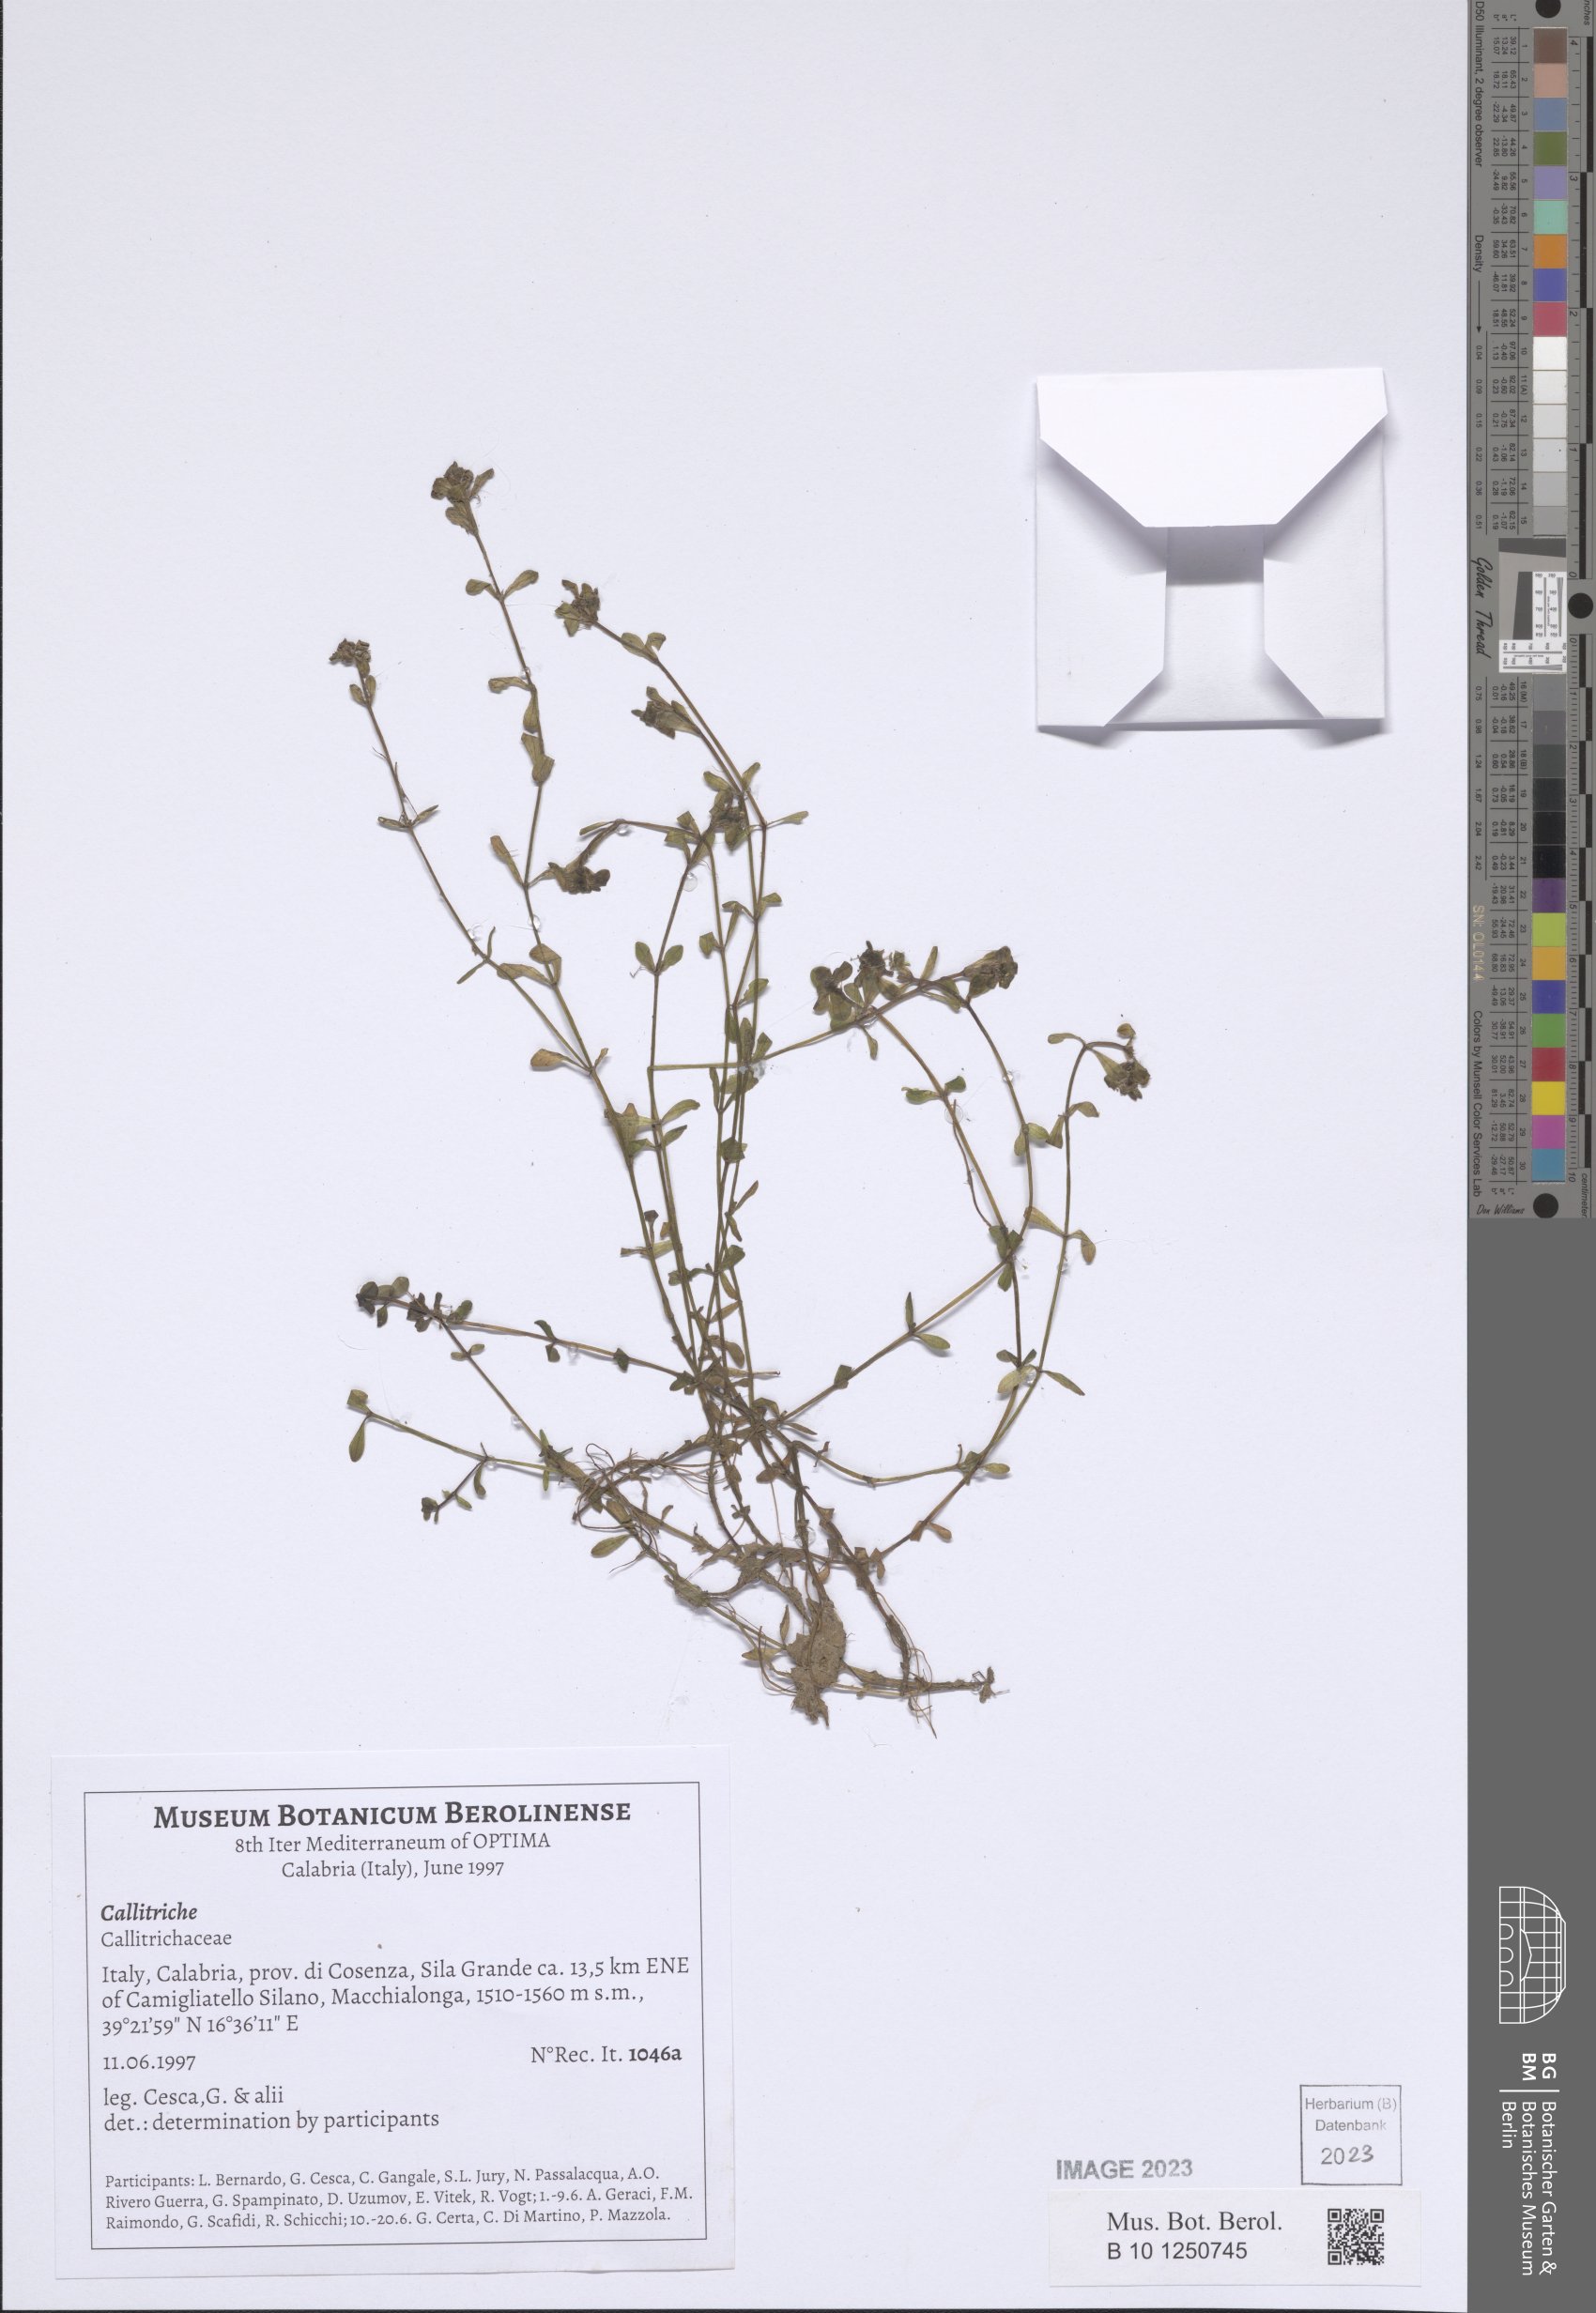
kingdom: Plantae
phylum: Tracheophyta
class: Magnoliopsida
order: Lamiales
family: Plantaginaceae
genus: Callitriche
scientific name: Callitriche
